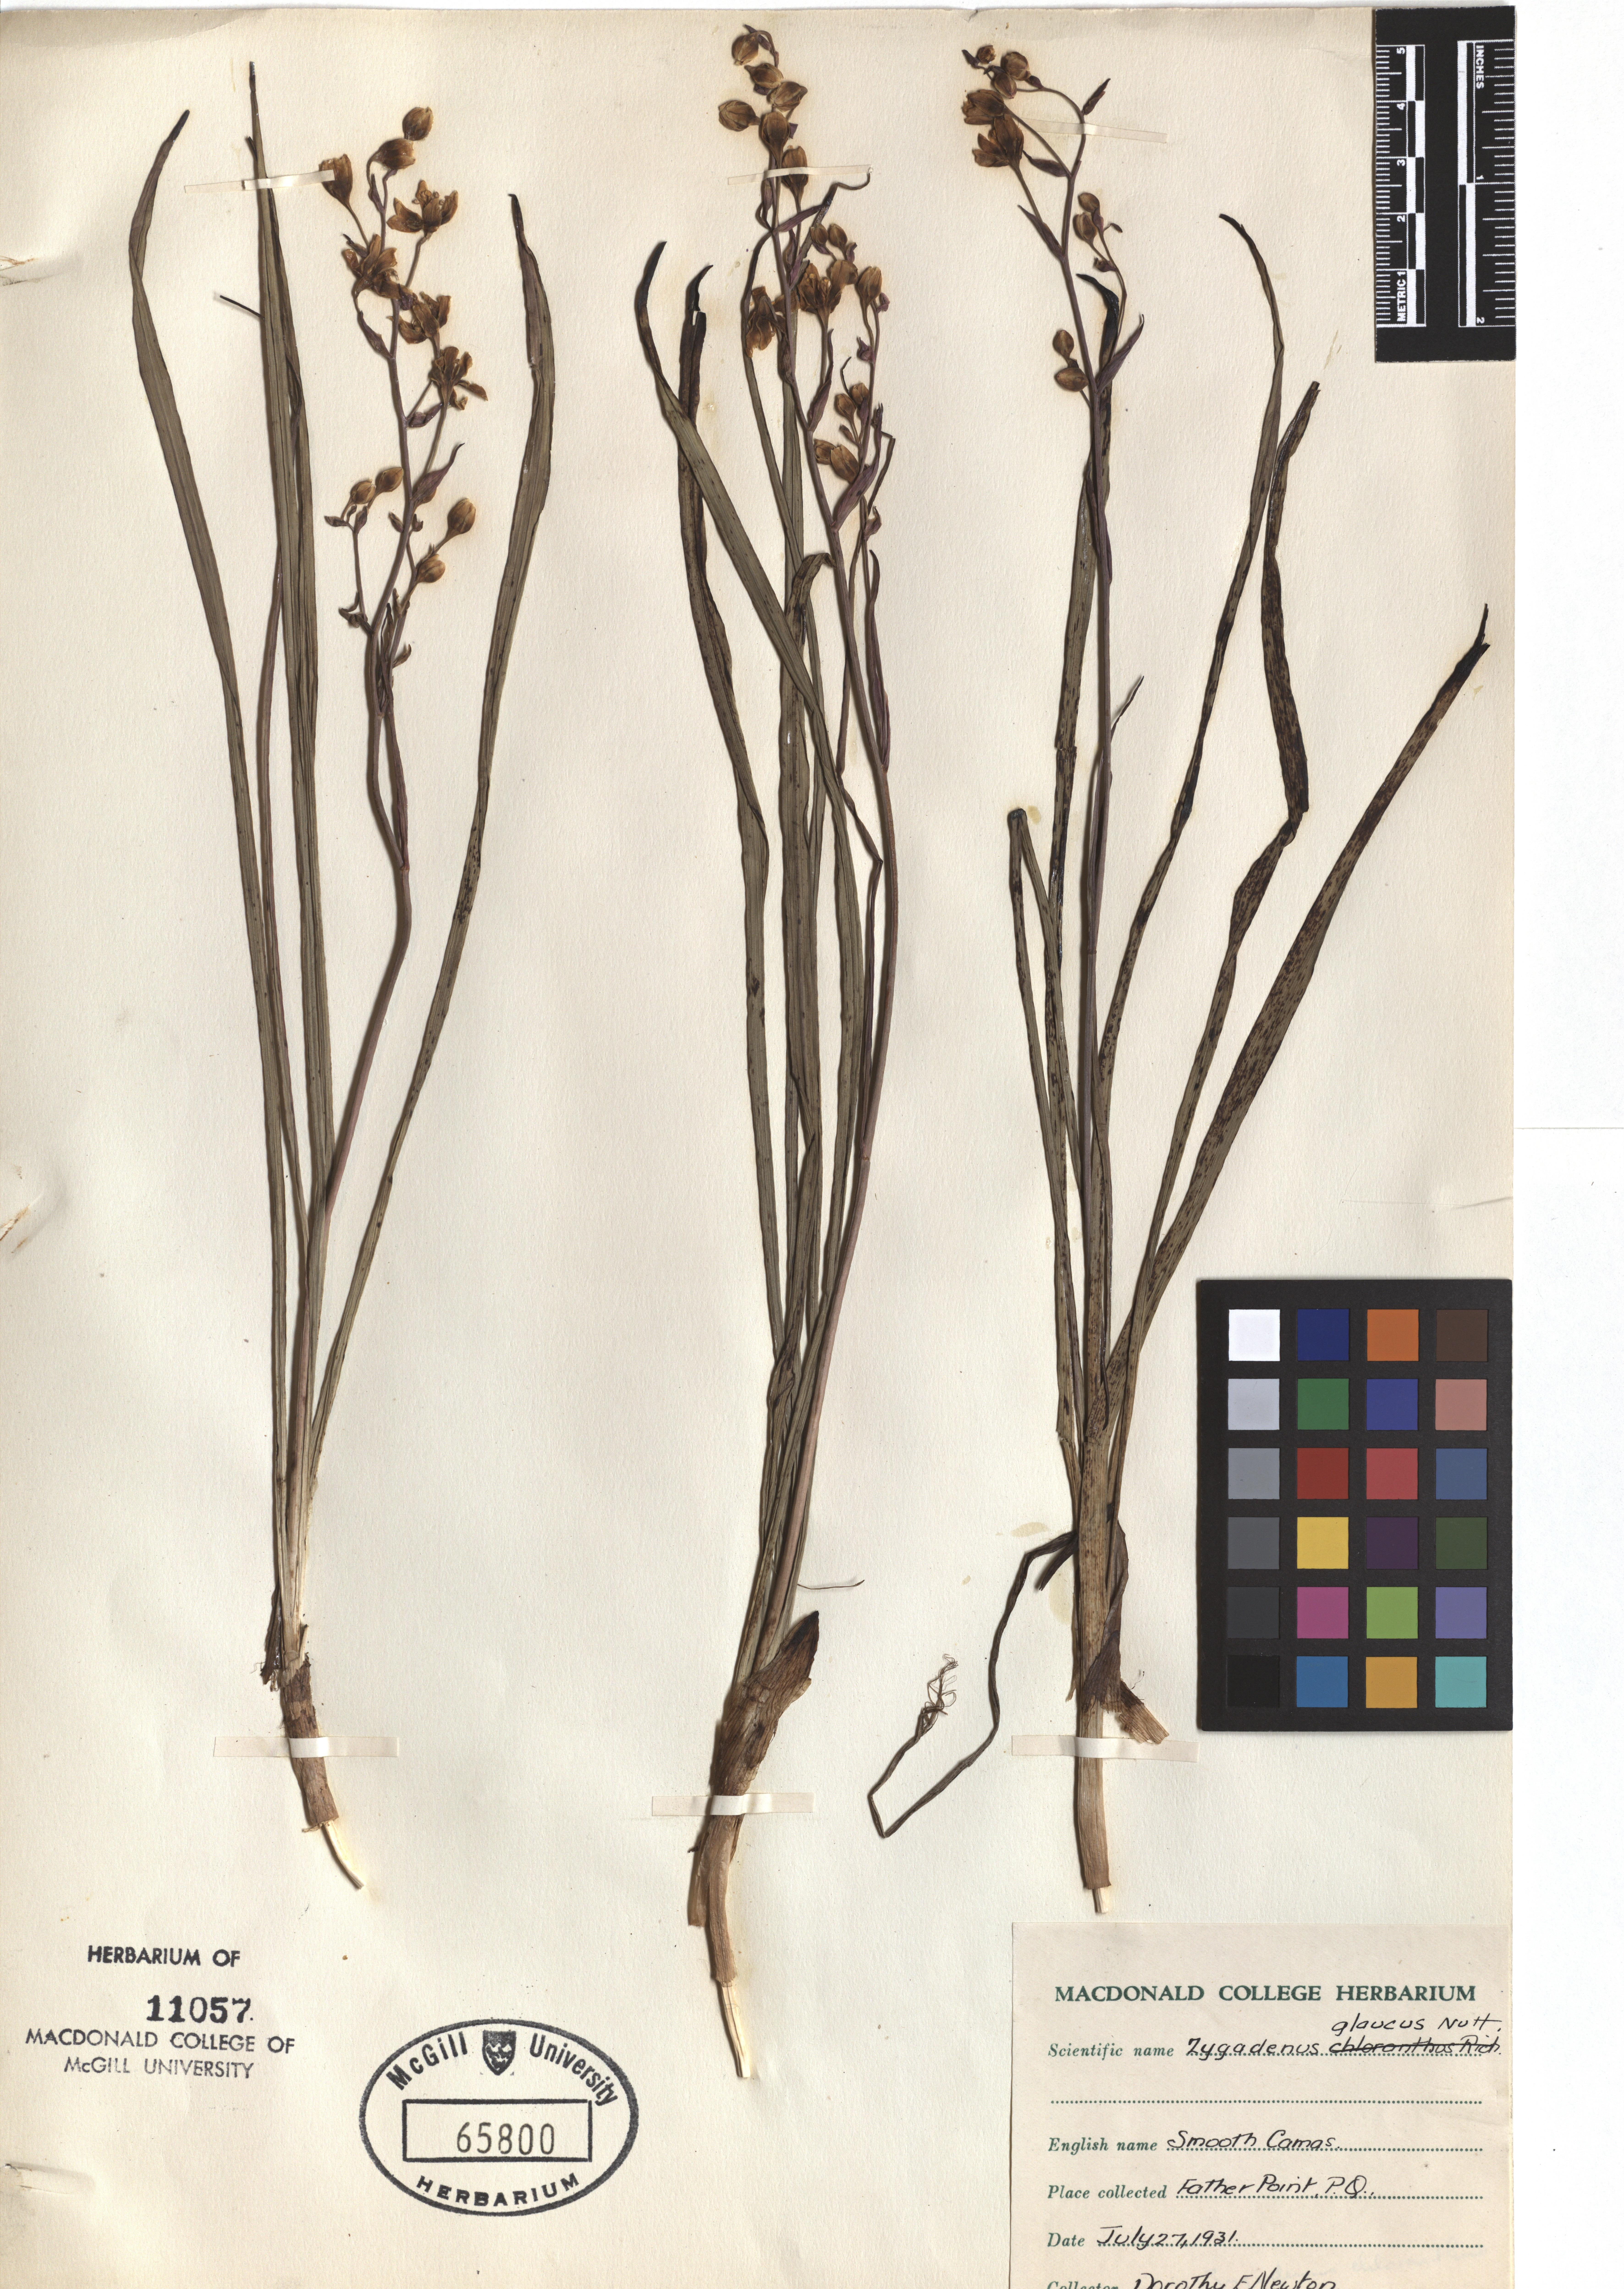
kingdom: Plantae
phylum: Tracheophyta
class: Liliopsida
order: Liliales
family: Melanthiaceae
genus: Anticlea
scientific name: Anticlea elegans
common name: Mountain death camas
